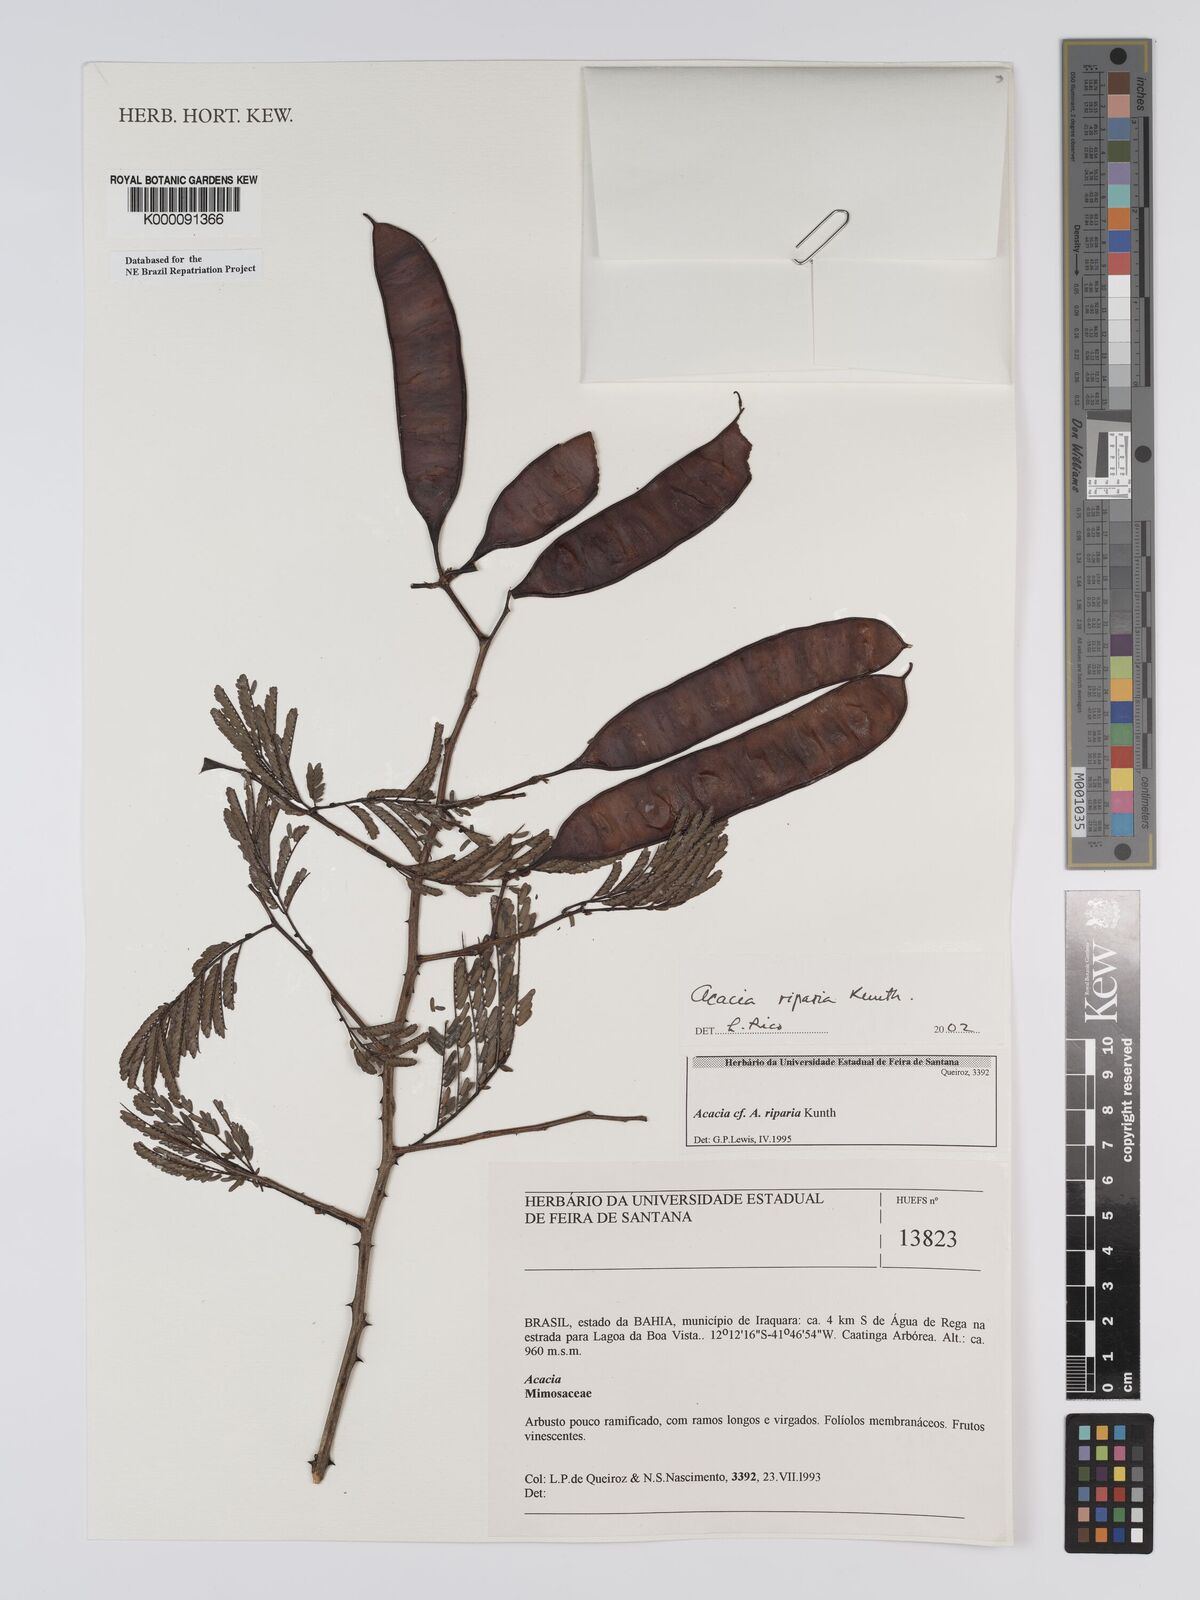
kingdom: Plantae
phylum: Tracheophyta
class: Magnoliopsida
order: Fabales
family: Fabaceae
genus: Senegalia
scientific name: Senegalia riparia
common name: Catch-and-keep
